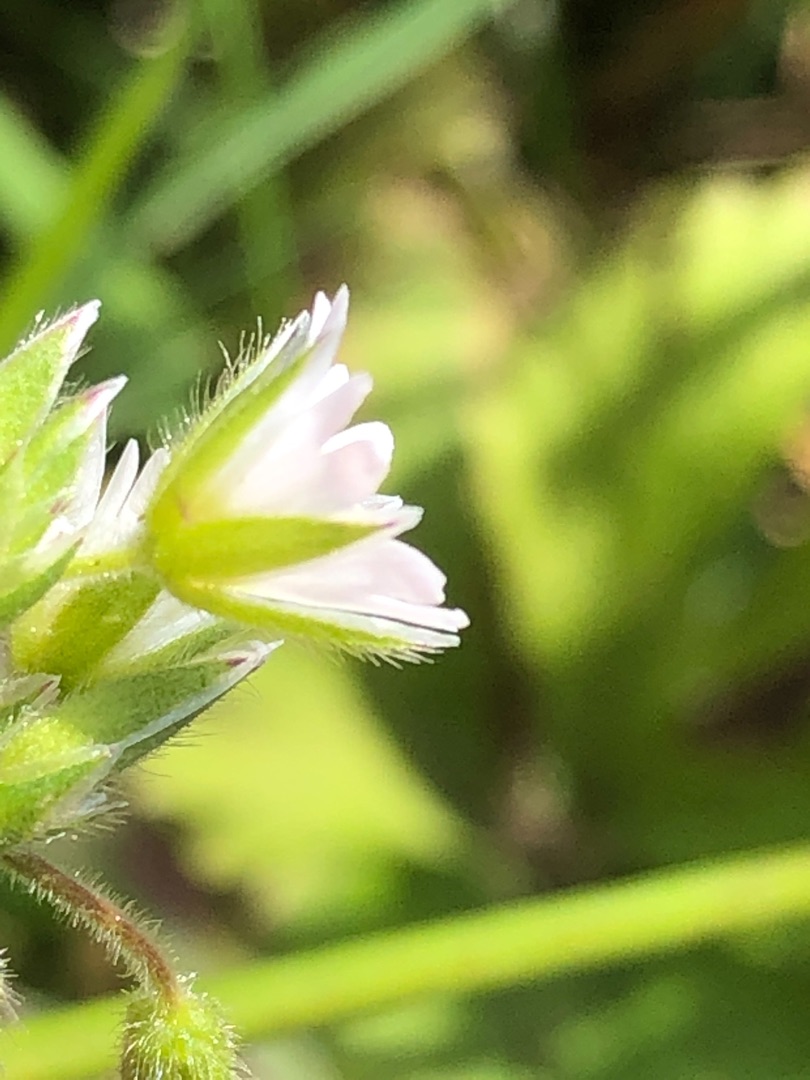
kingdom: Plantae
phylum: Tracheophyta
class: Magnoliopsida
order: Caryophyllales
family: Caryophyllaceae
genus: Cerastium
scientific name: Cerastium fontanum
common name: Almindelig hønsetarm
